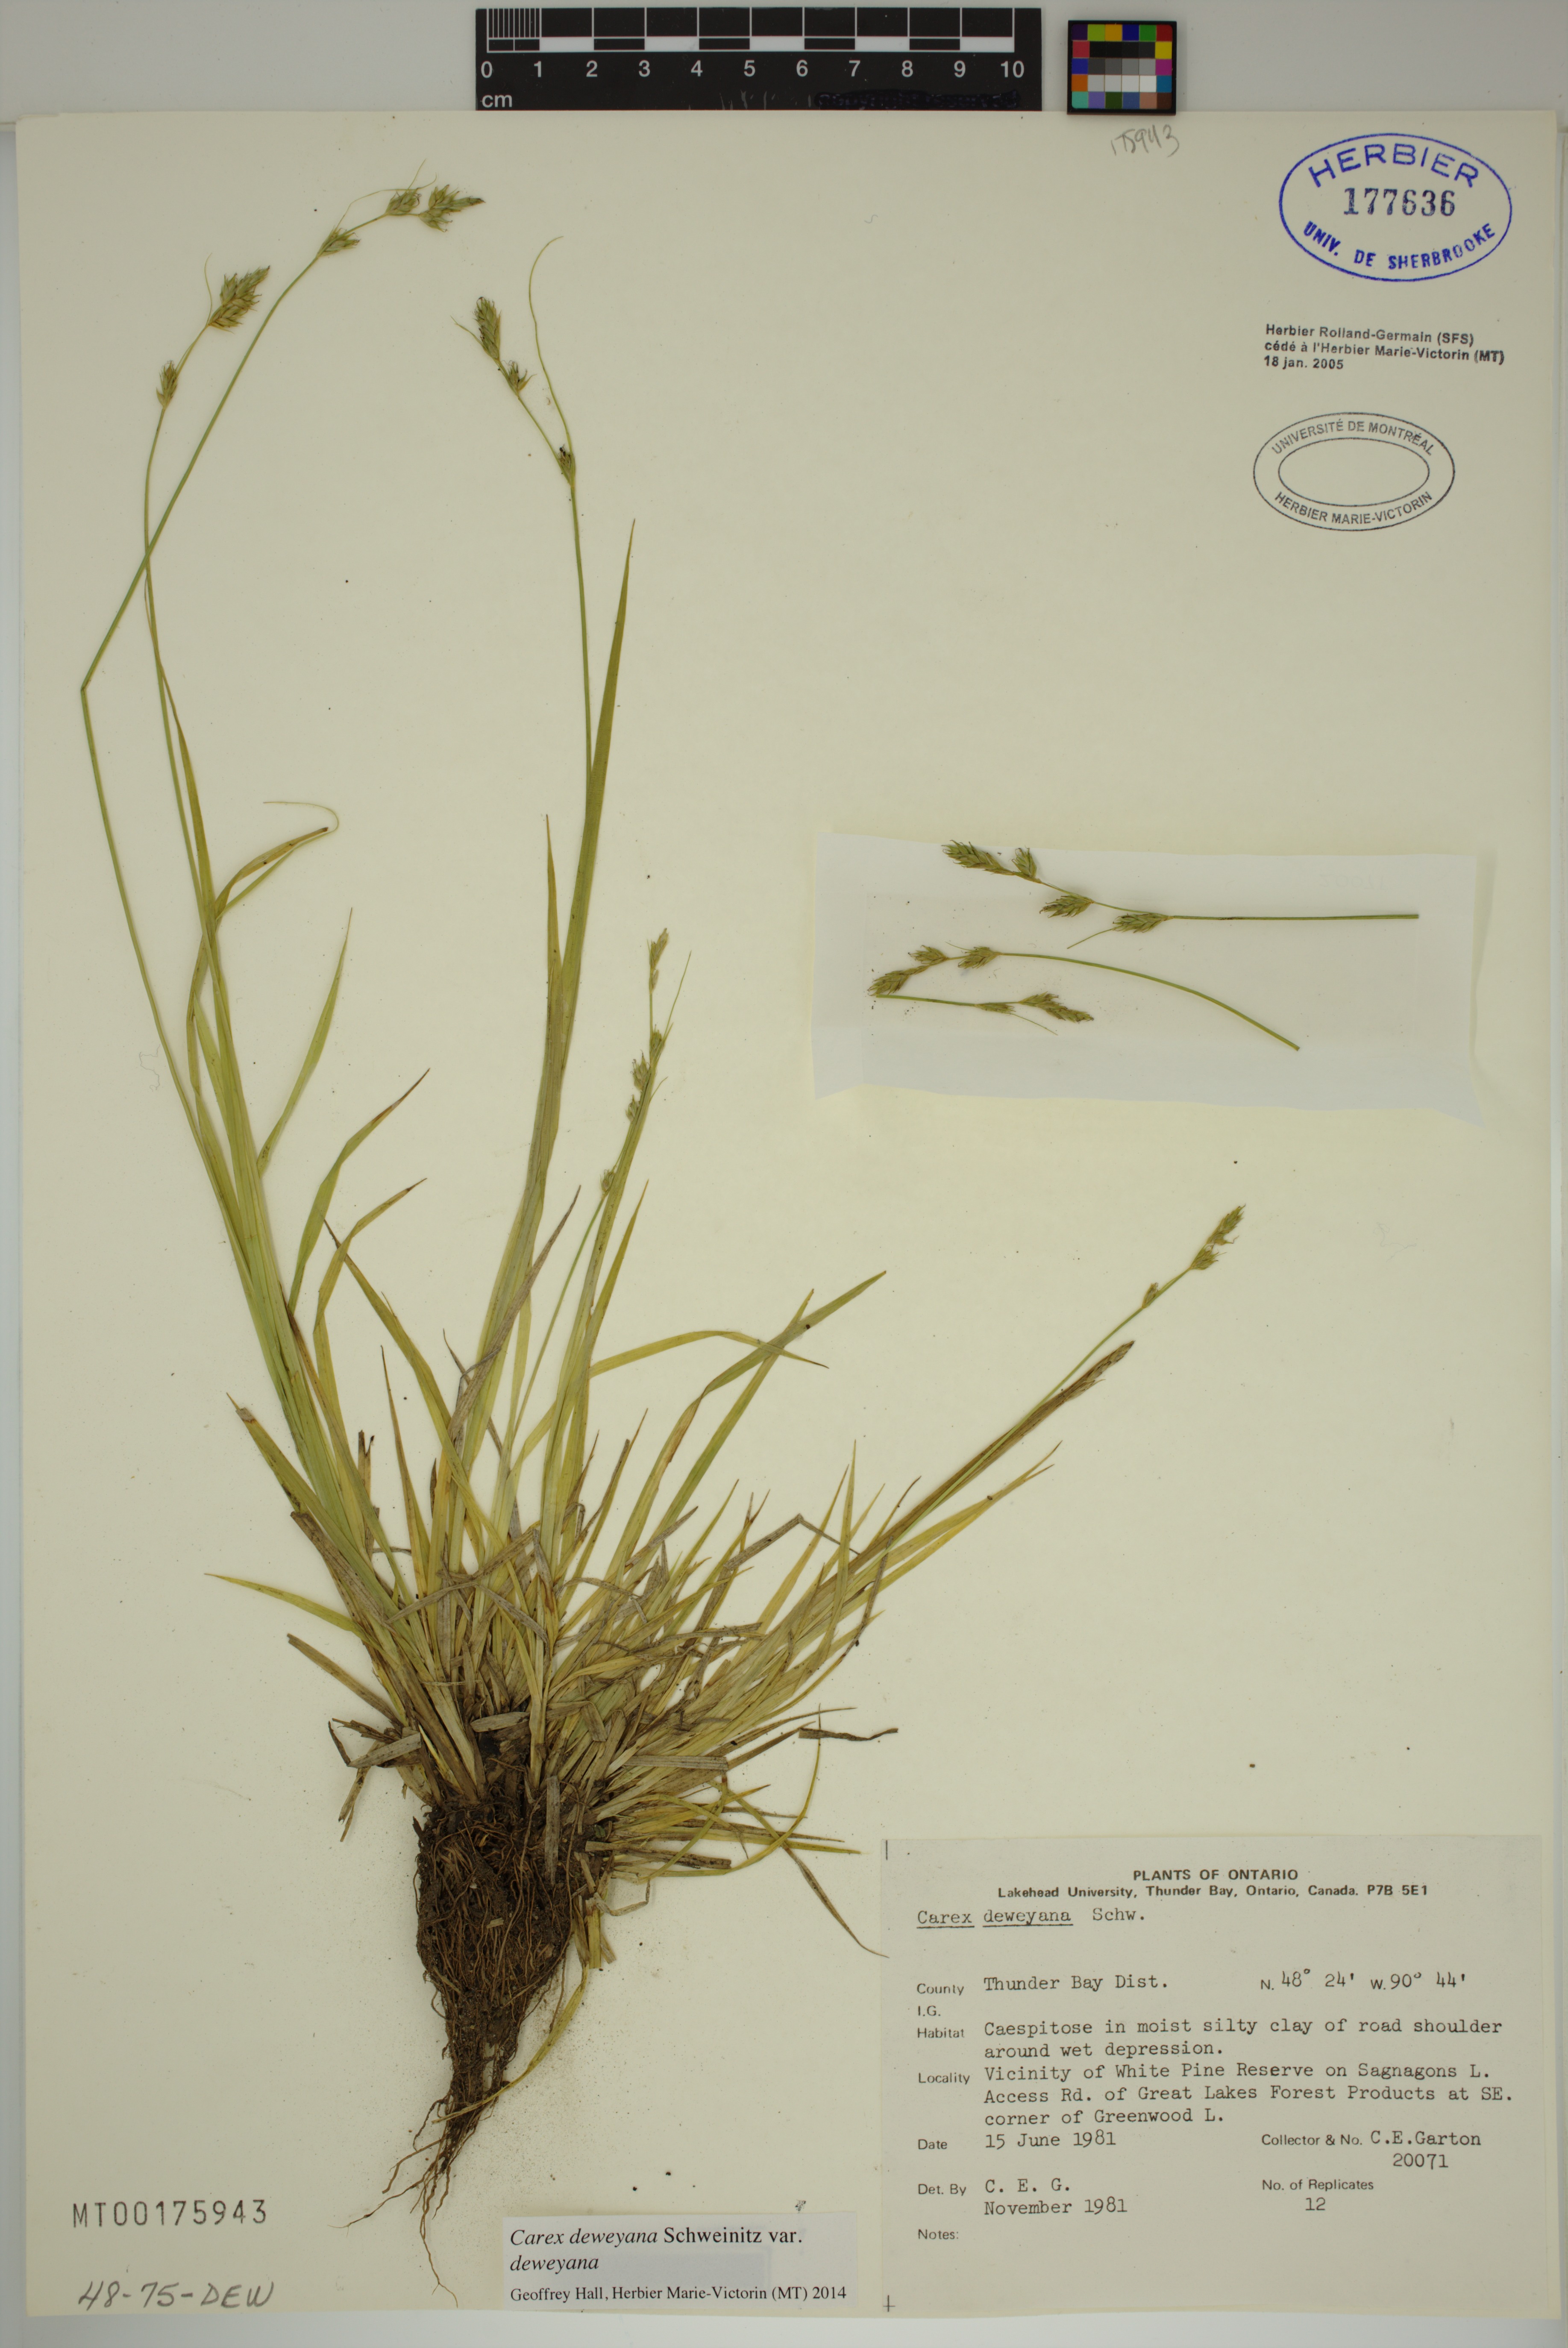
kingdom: Plantae
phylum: Tracheophyta
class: Liliopsida
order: Poales
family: Cyperaceae
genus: Carex
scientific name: Carex deweyana
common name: Dewey's sedge
